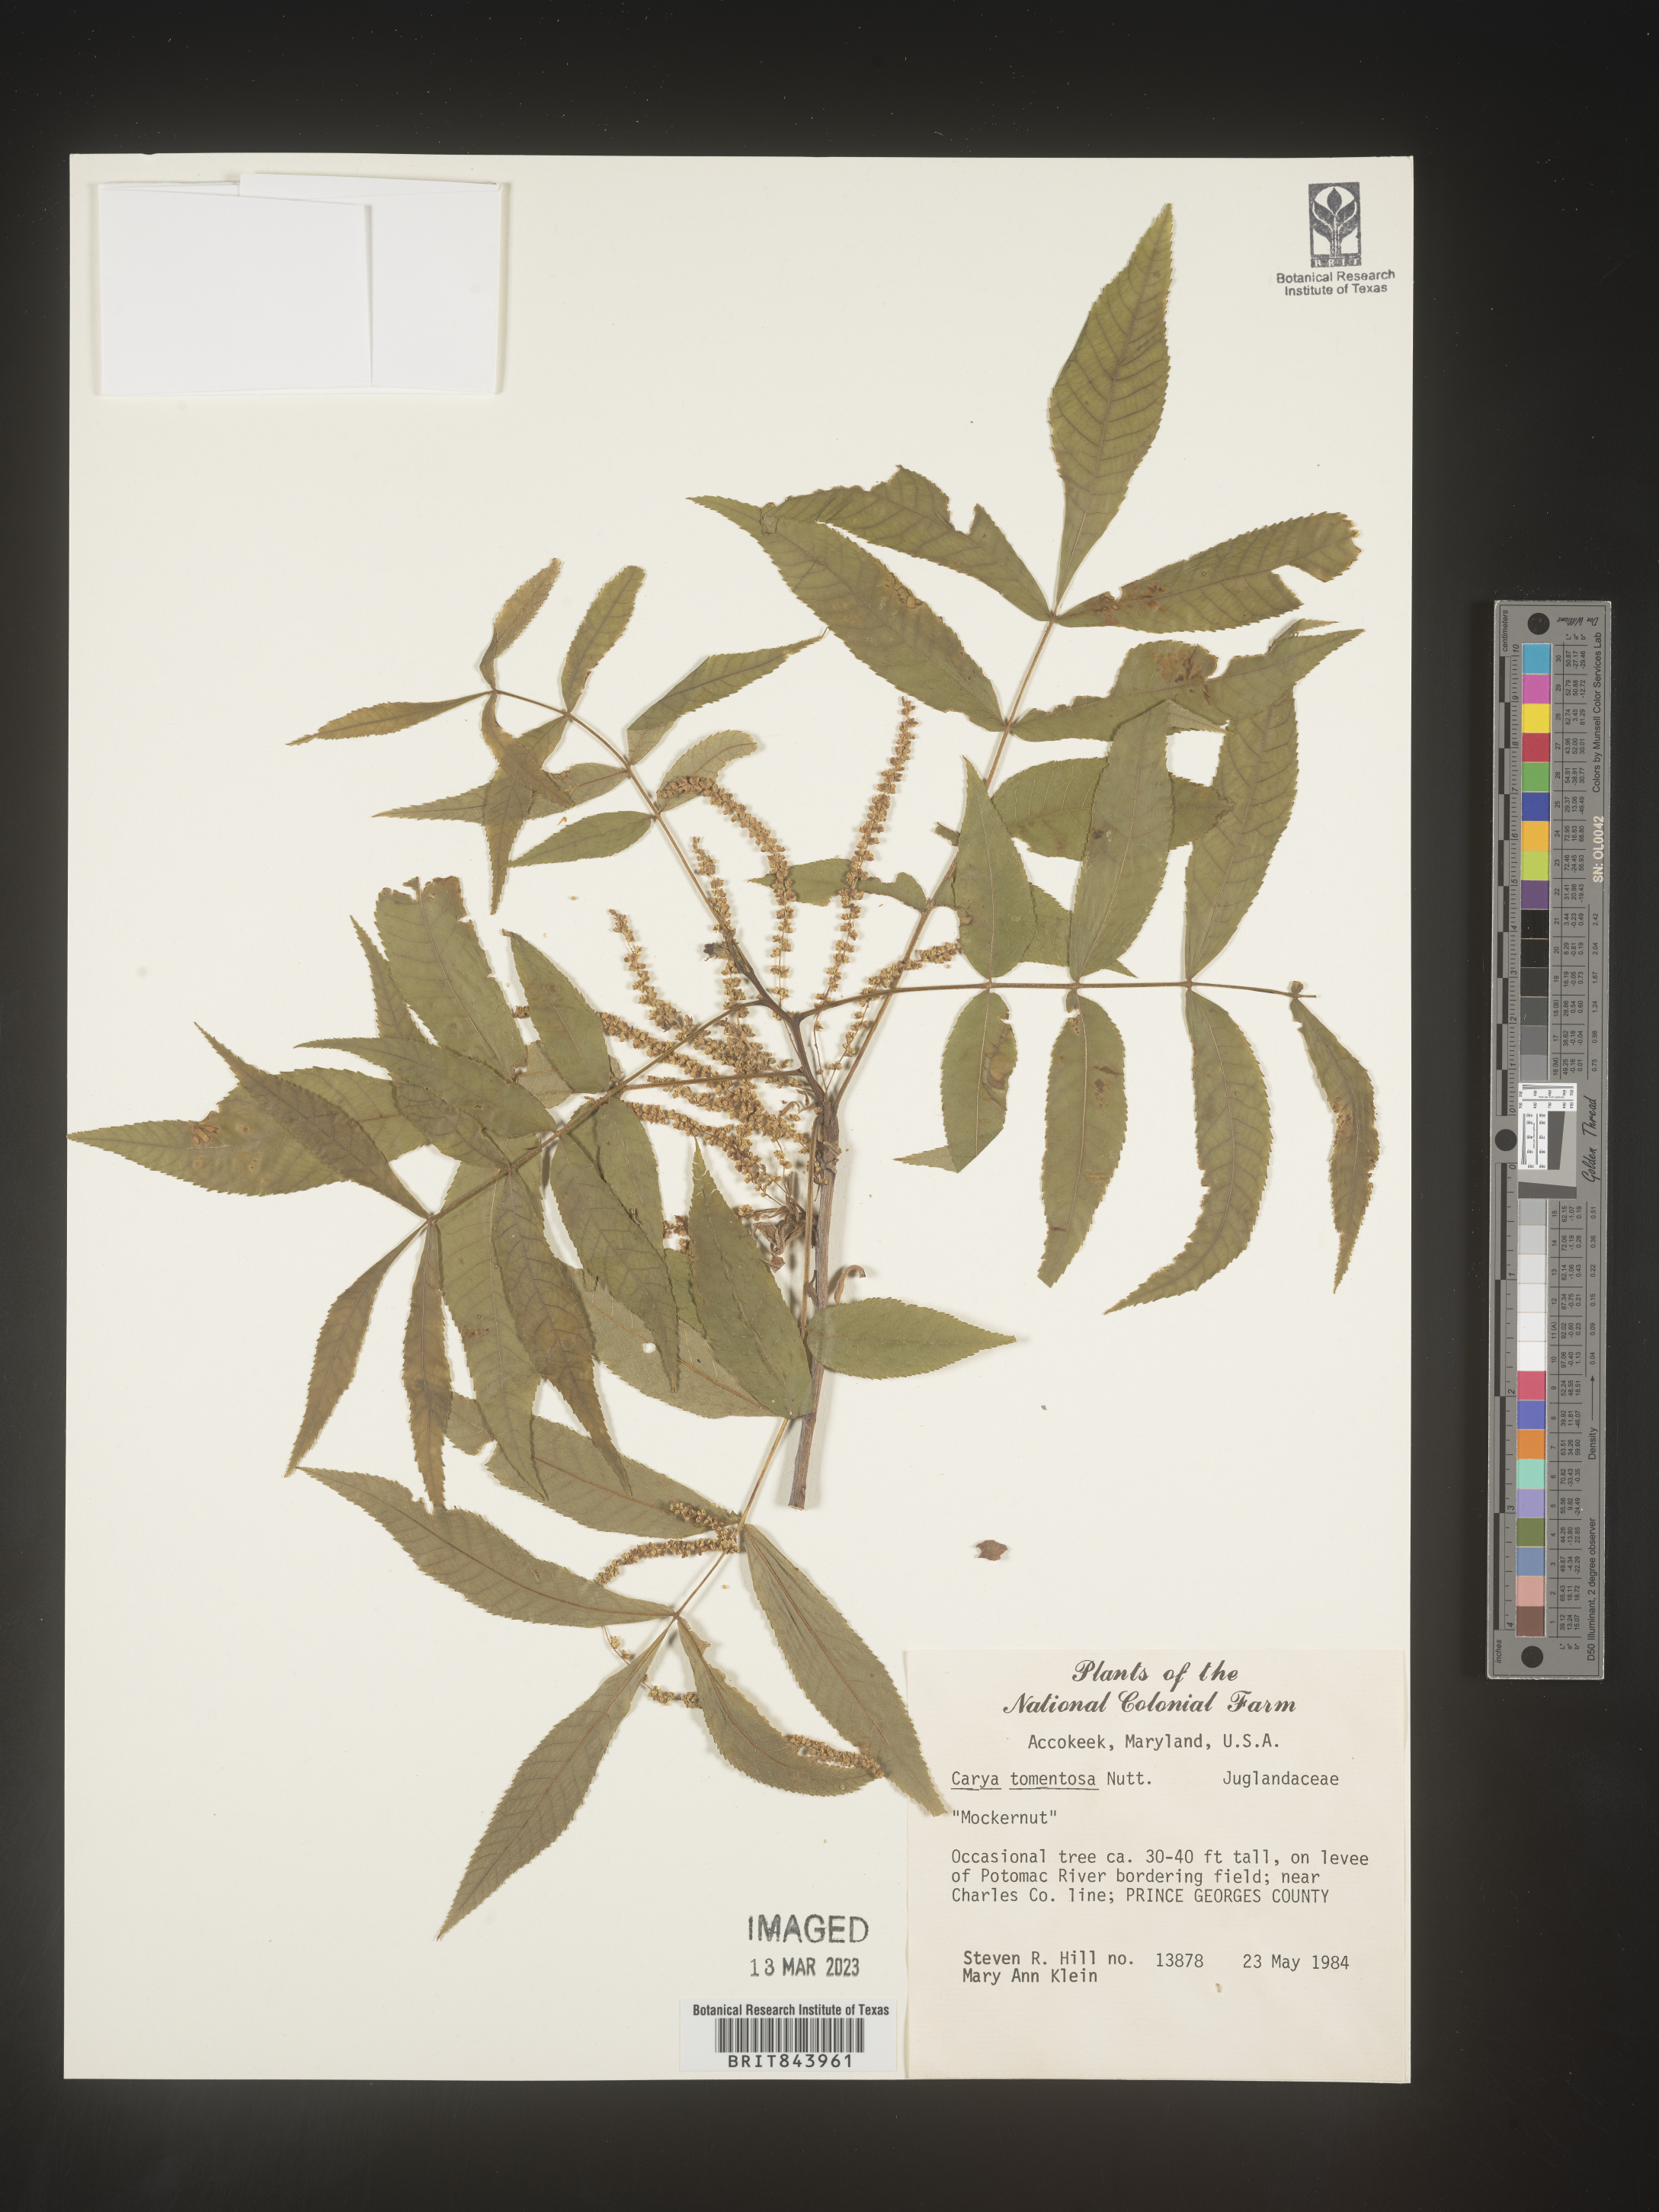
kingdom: Plantae
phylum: Tracheophyta
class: Magnoliopsida
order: Fagales
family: Juglandaceae
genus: Carya
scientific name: Carya alba
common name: Mockernut hickory
